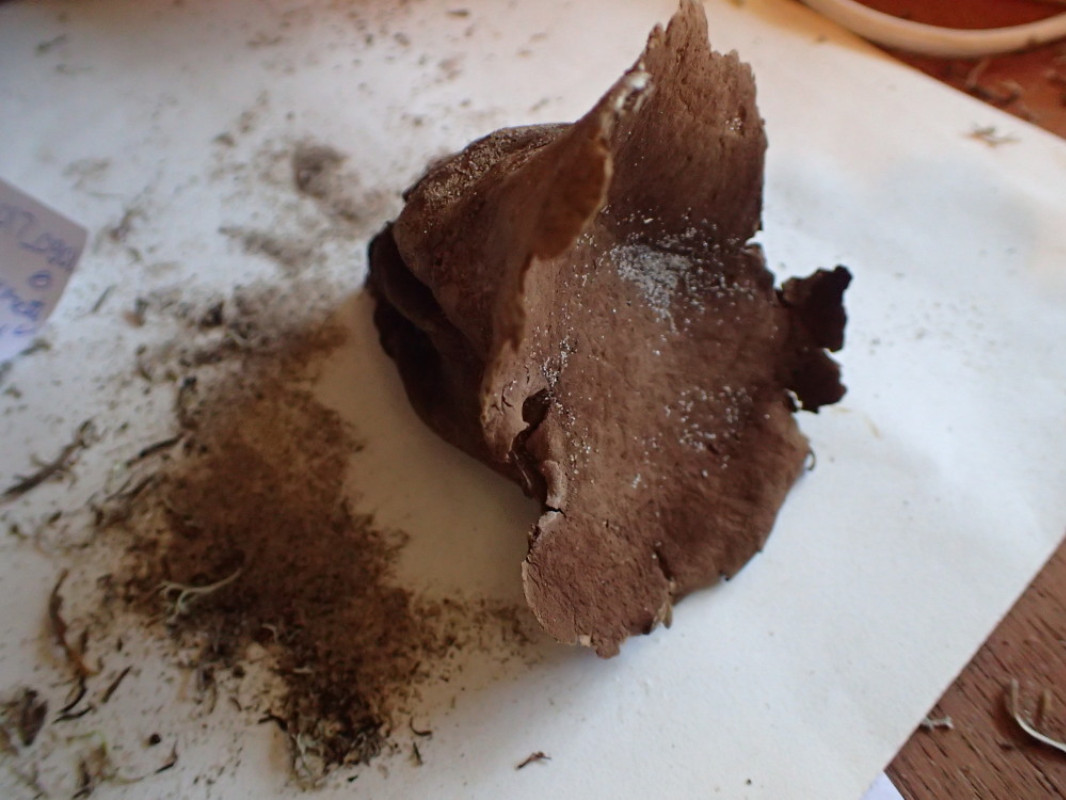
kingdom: Fungi
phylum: Basidiomycota
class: Agaricomycetes
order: Agaricales
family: Lycoperdaceae
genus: Bovistella
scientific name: Bovistella utriformis
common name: skællet støvbold
